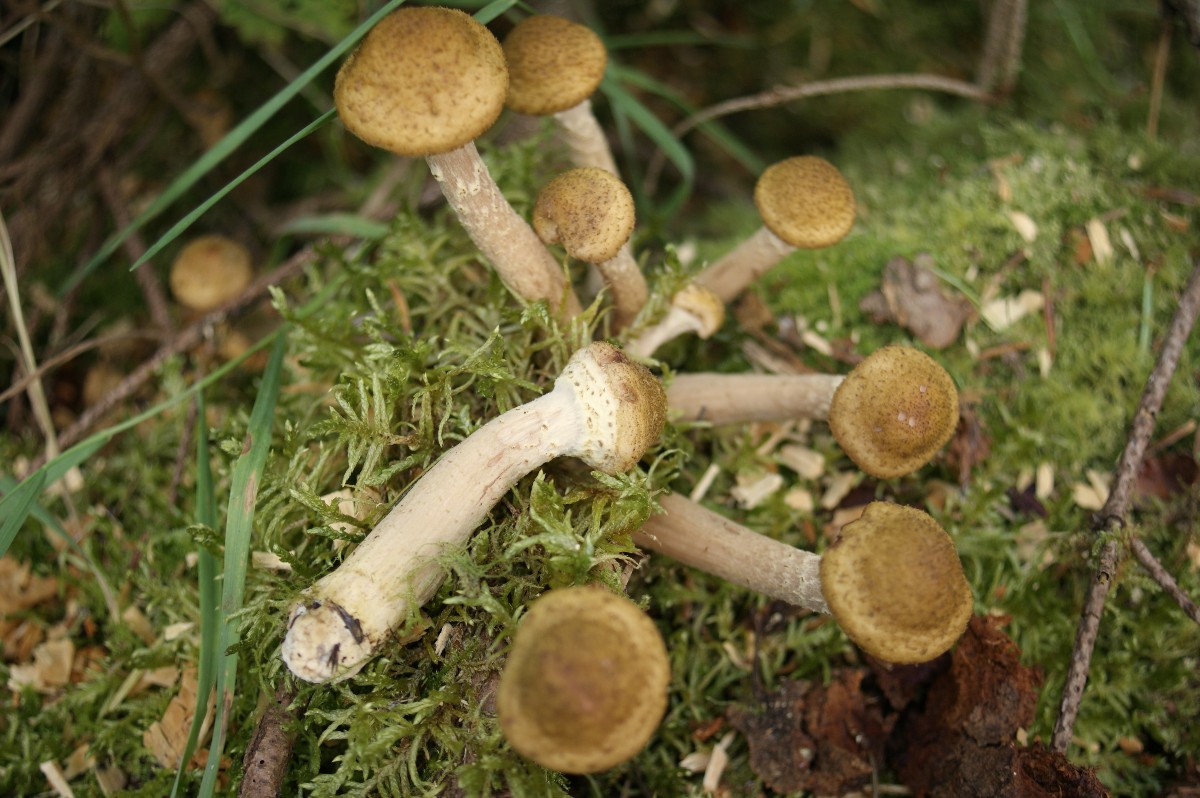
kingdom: Fungi
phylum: Basidiomycota
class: Agaricomycetes
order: Agaricales
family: Physalacriaceae
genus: Armillaria
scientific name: Armillaria ostoyae
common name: mørk honningsvamp
